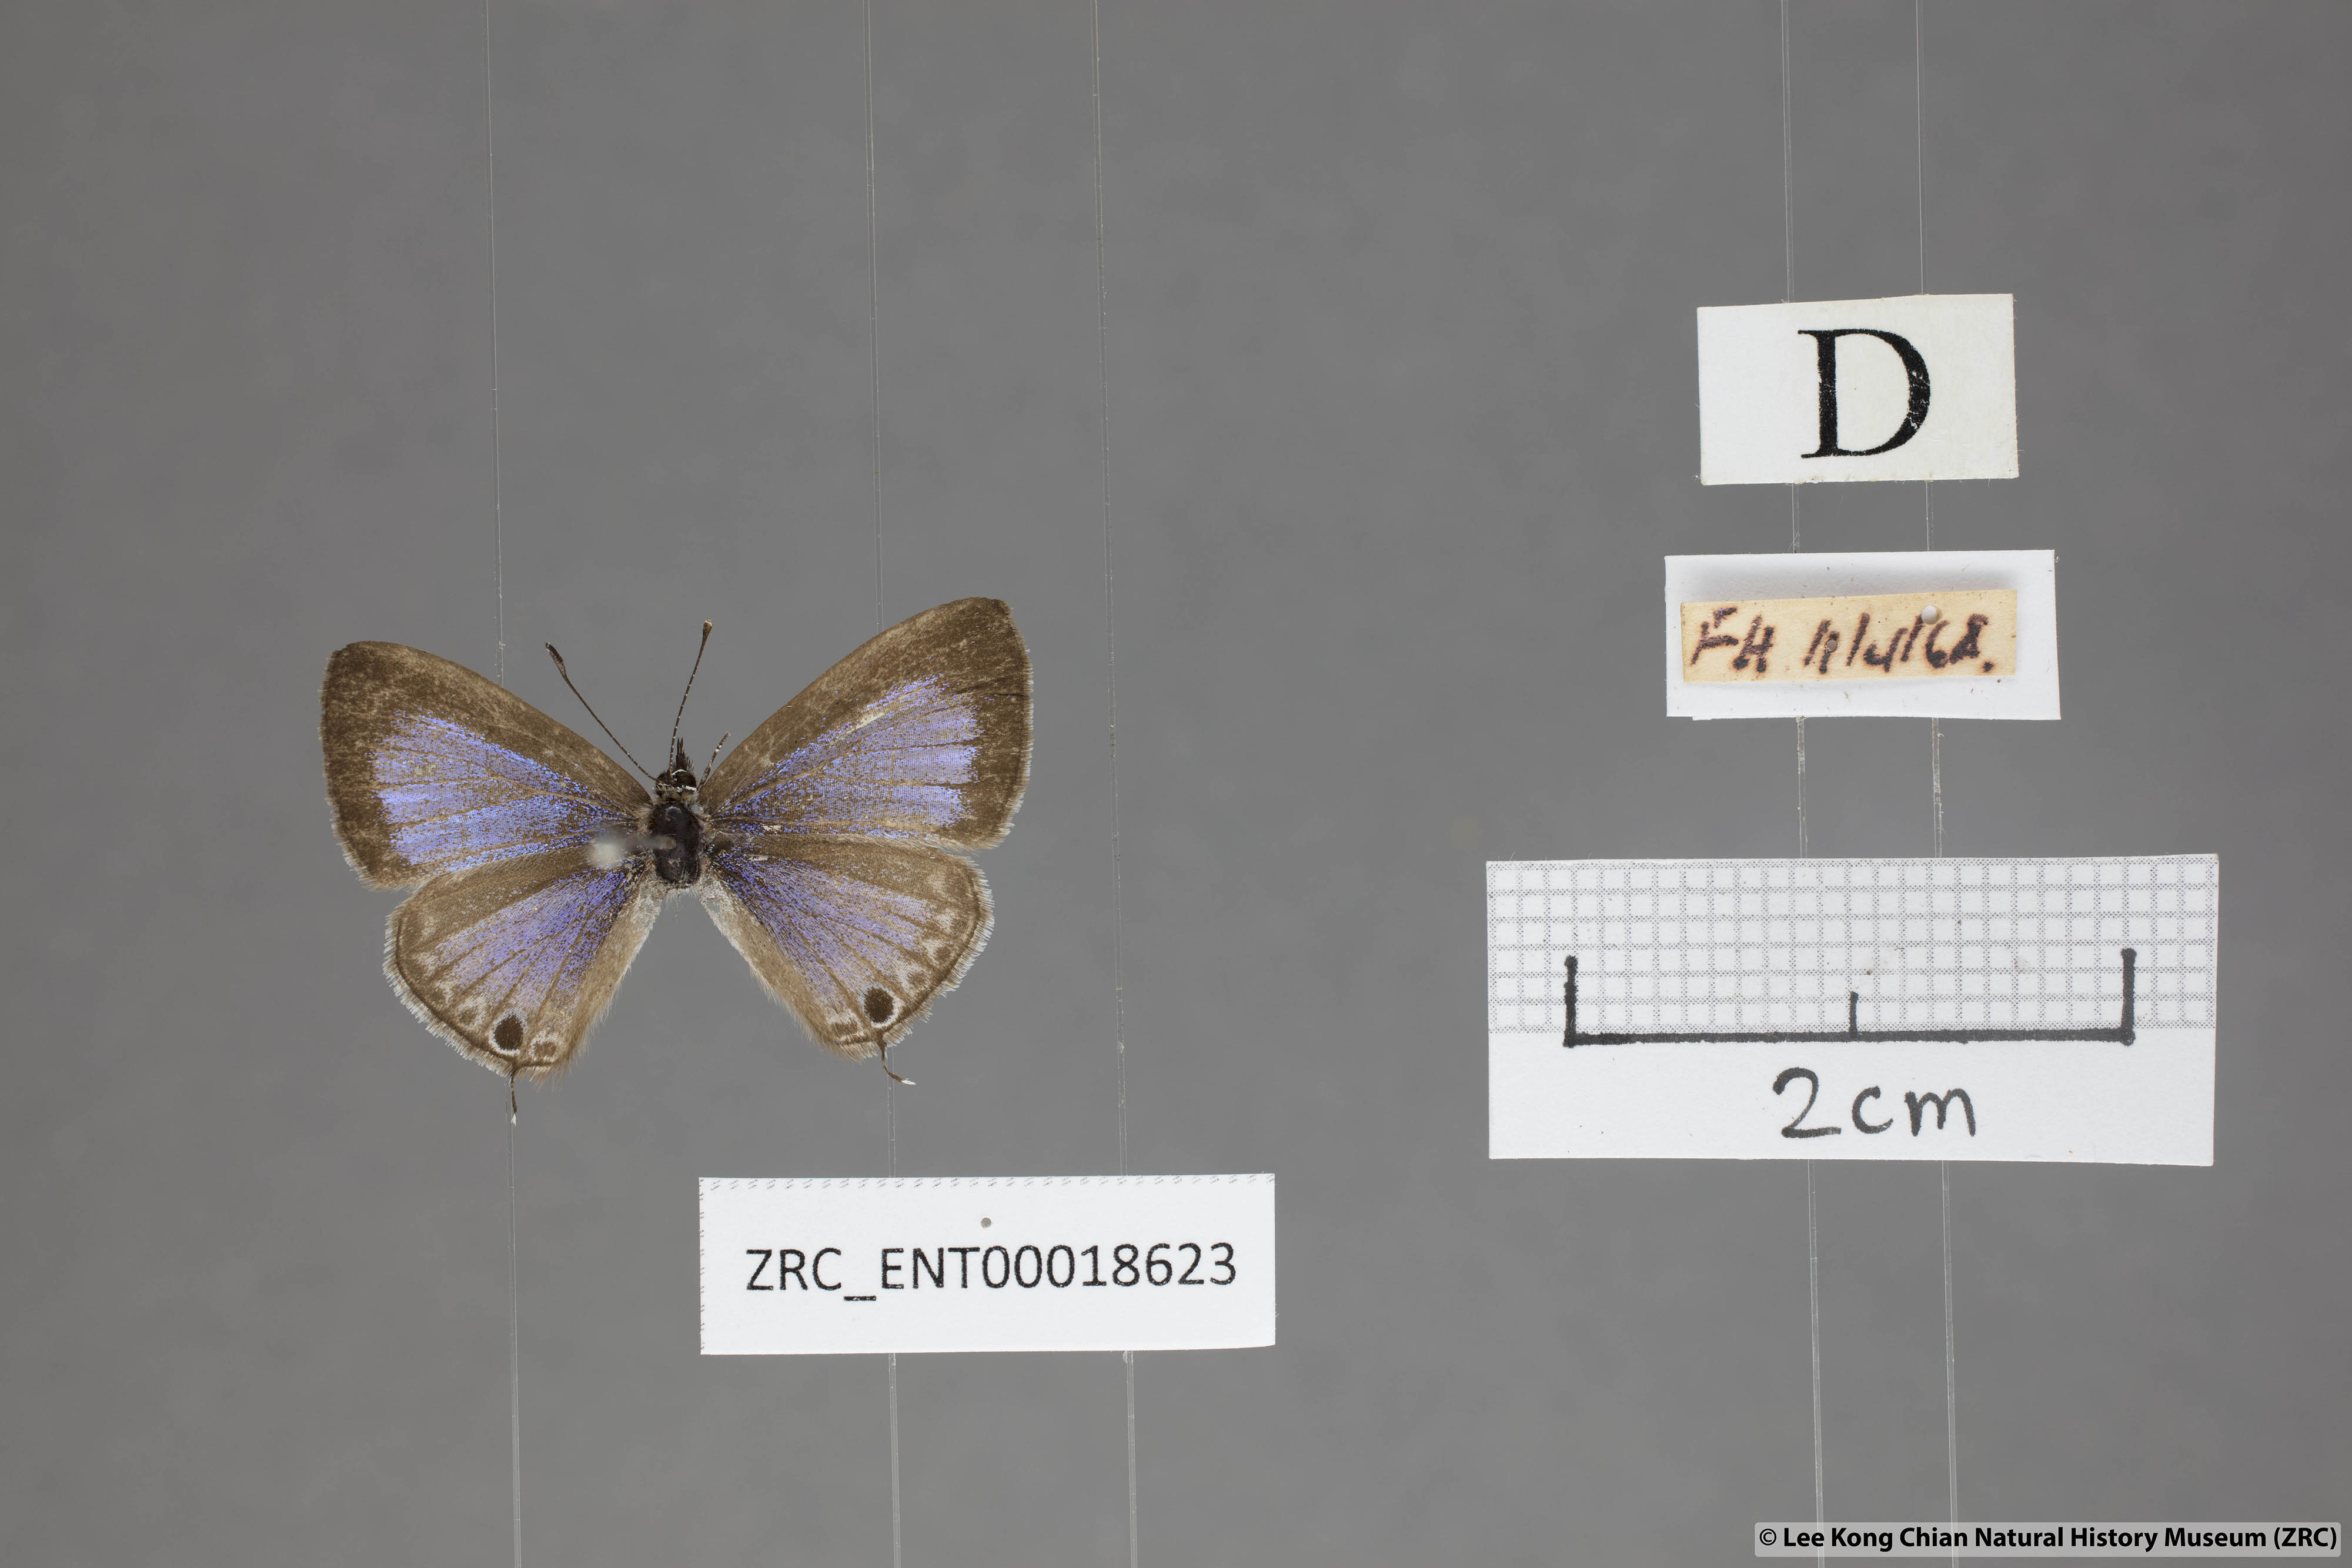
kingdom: Animalia
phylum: Arthropoda
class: Insecta
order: Lepidoptera
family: Lycaenidae
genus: Prosotas
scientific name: Prosotas nelides
